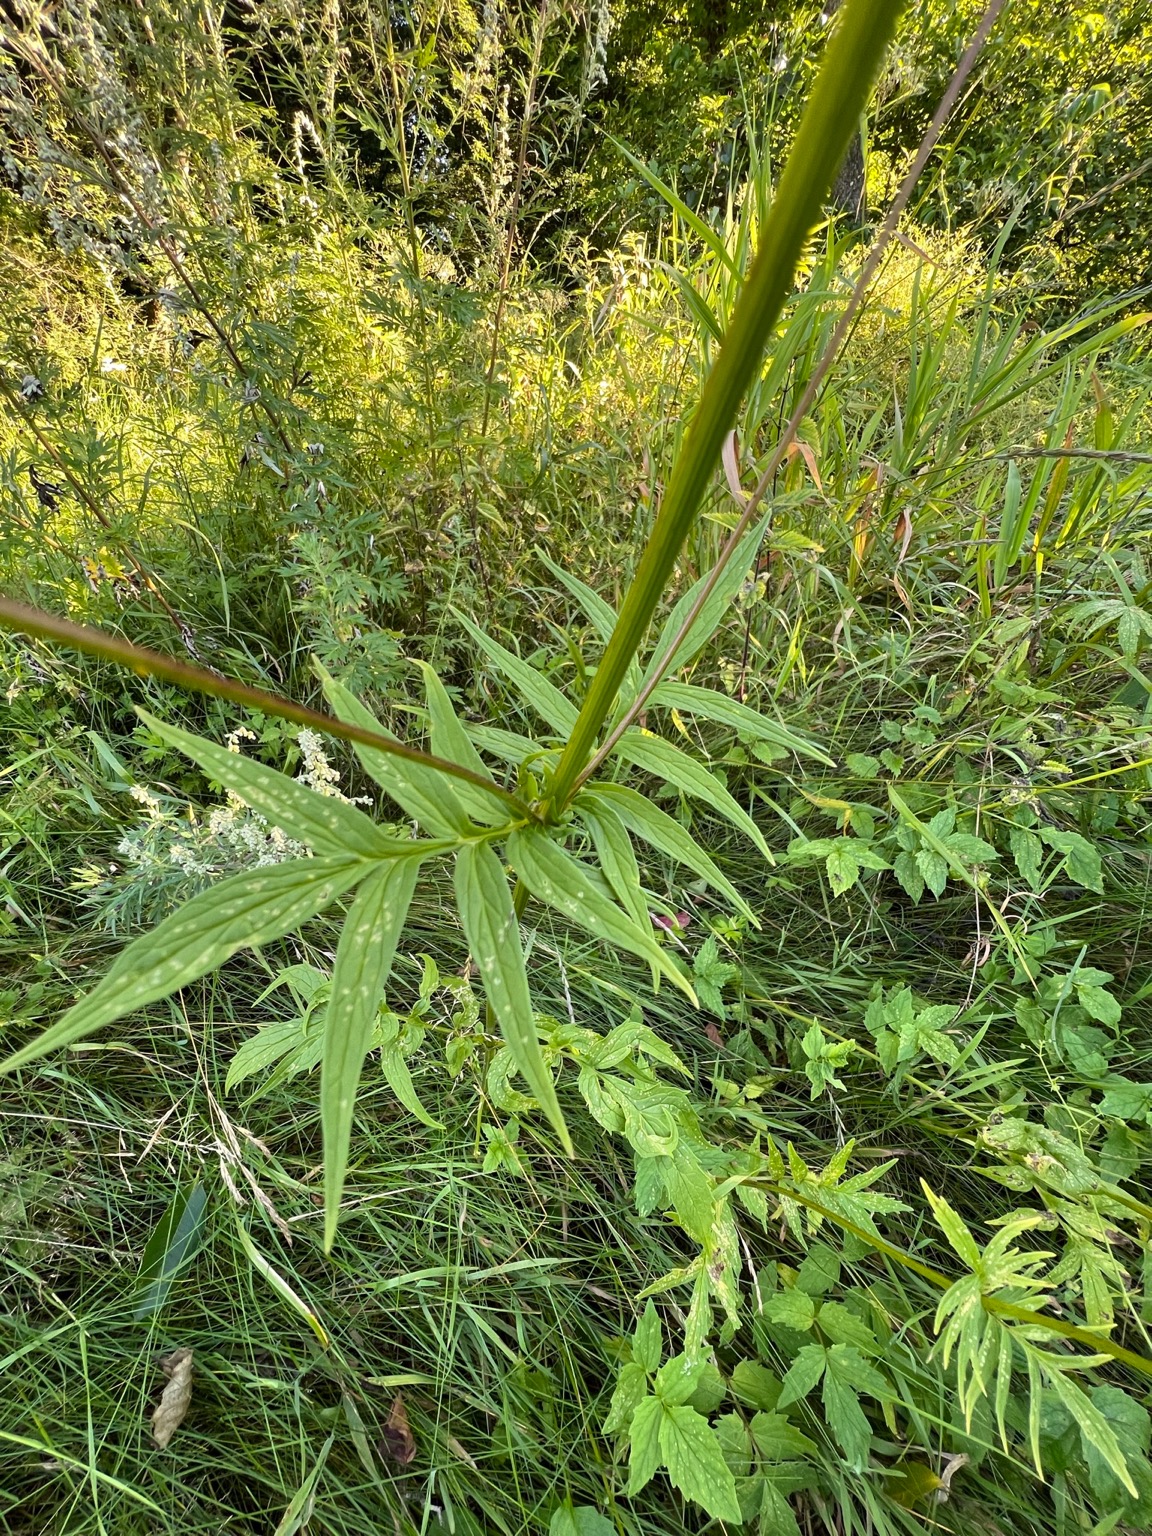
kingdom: Plantae
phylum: Tracheophyta
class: Magnoliopsida
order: Dipsacales
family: Caprifoliaceae
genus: Valeriana
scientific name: Valeriana
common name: Baldrianslægten
